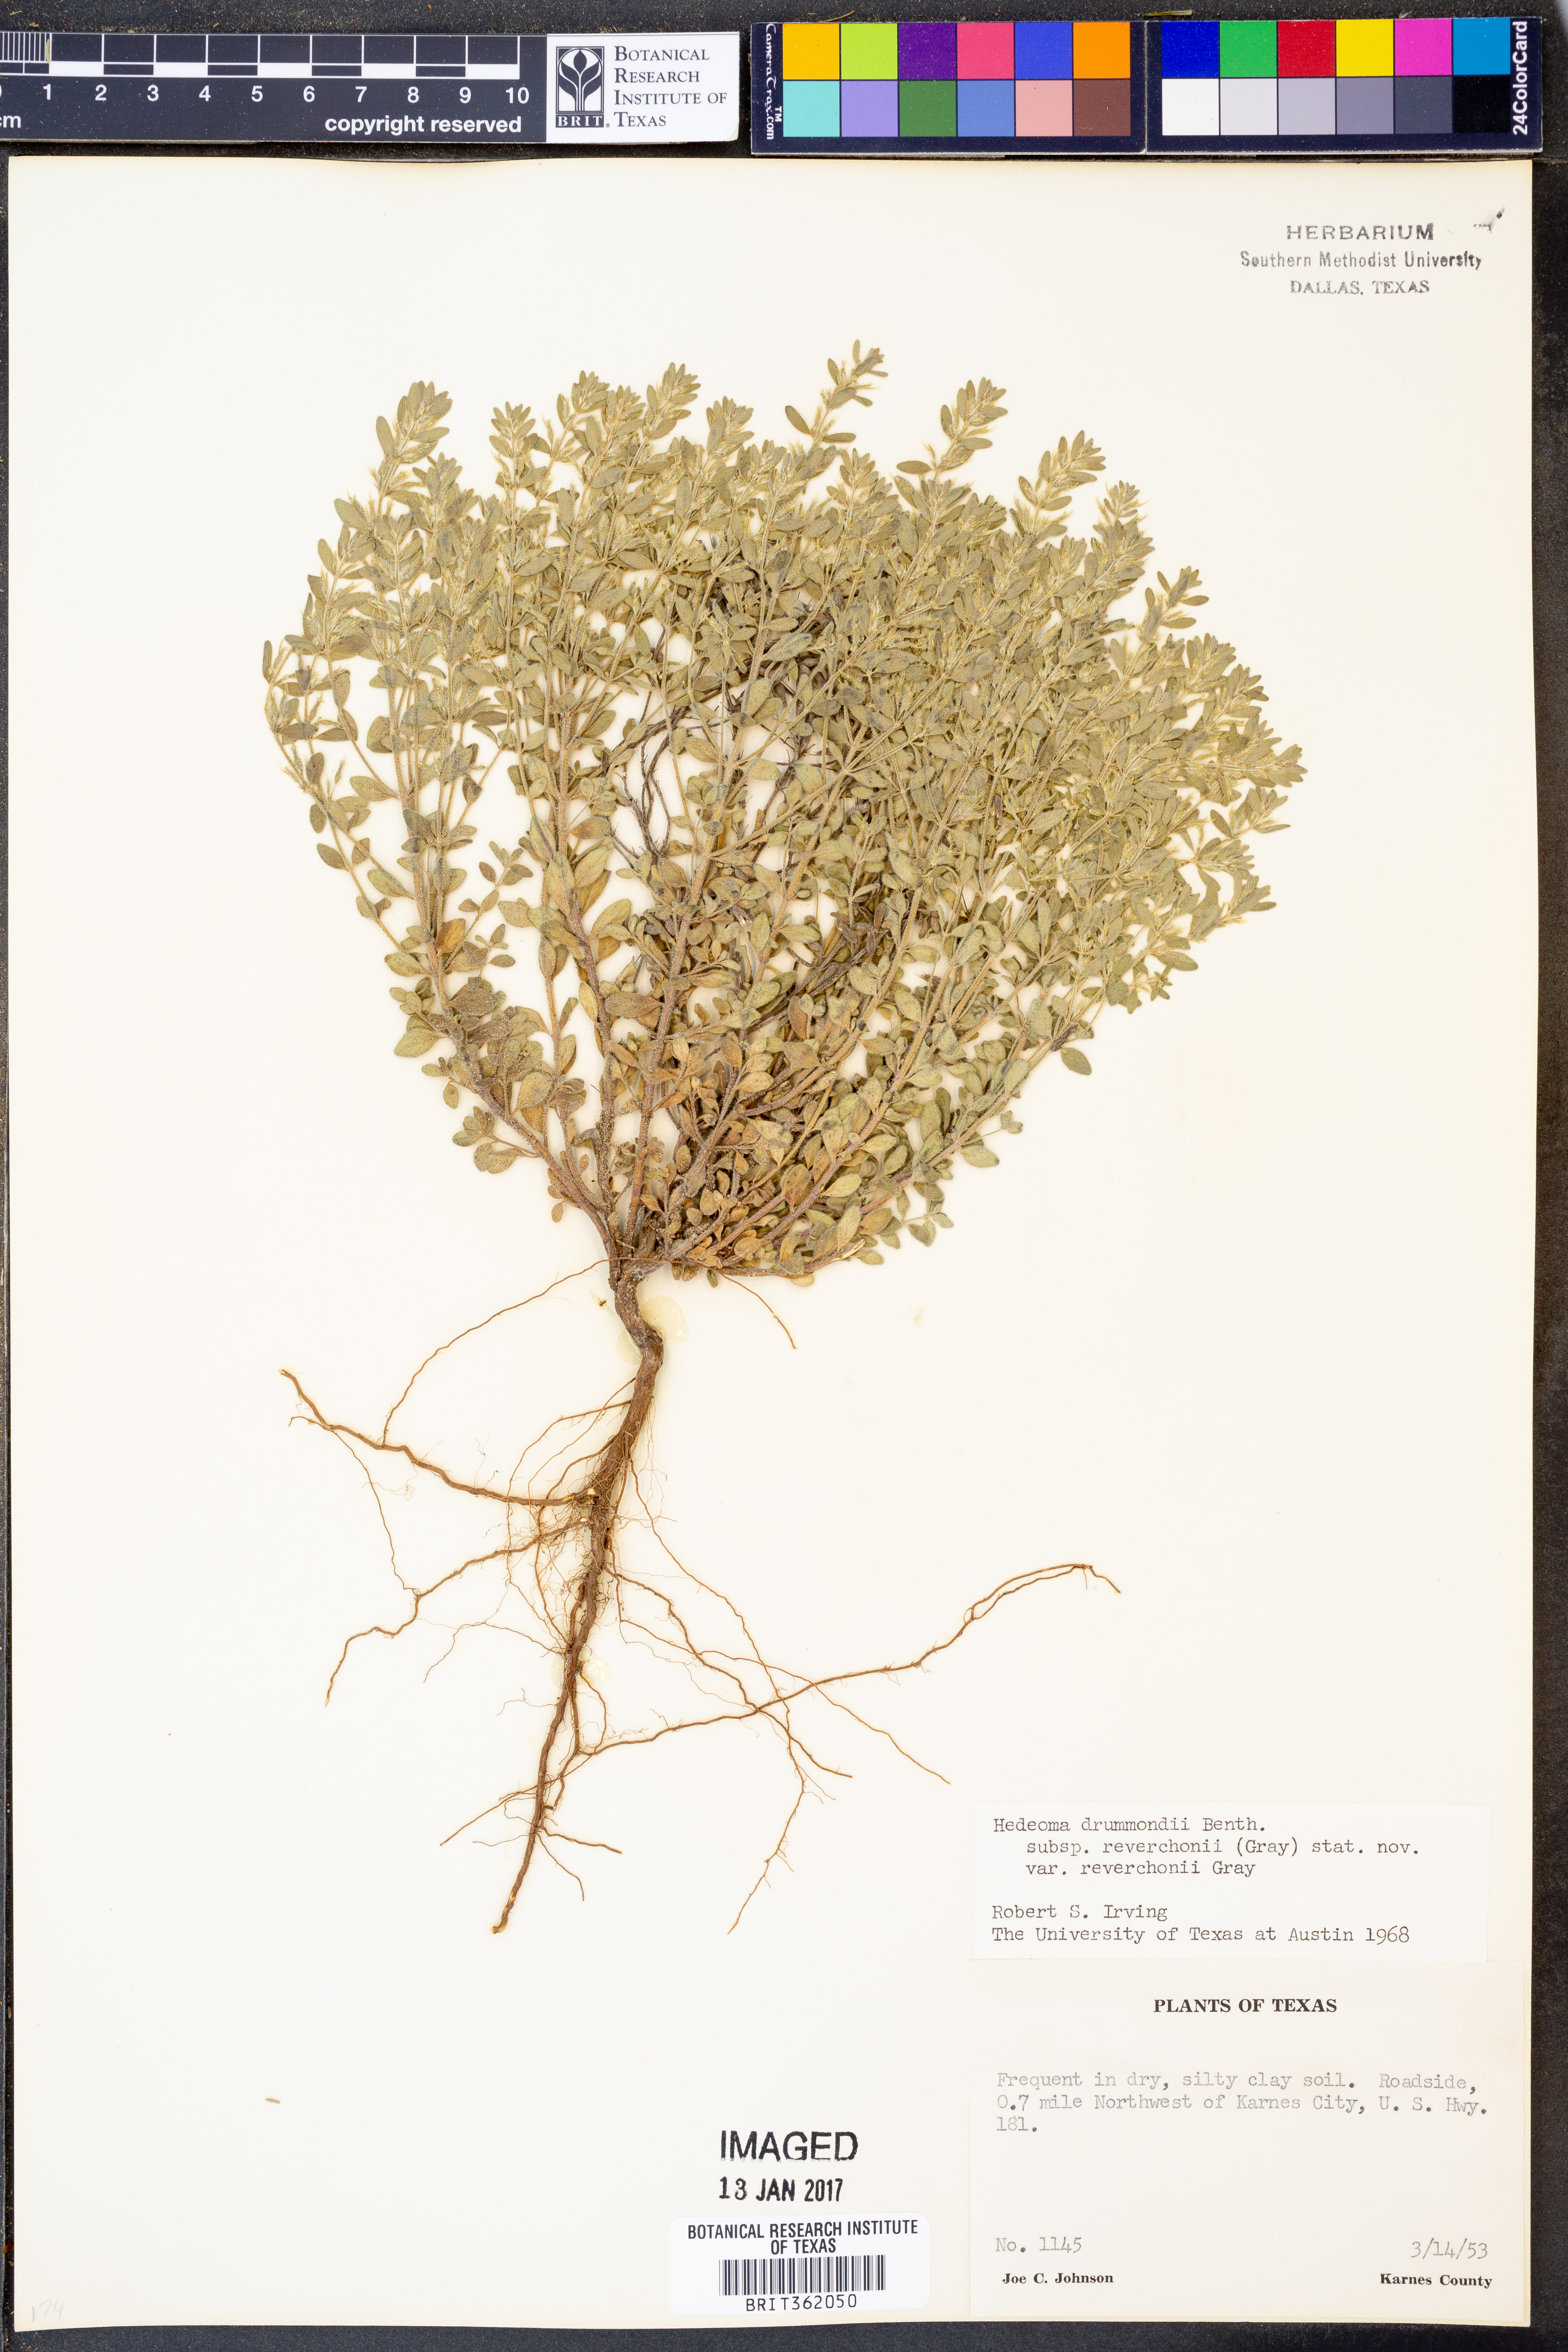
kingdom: Plantae
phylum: Tracheophyta
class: Magnoliopsida
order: Lamiales
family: Lamiaceae
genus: Hedeoma
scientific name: Hedeoma reverchonii
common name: Reverchon's false penny-royal
